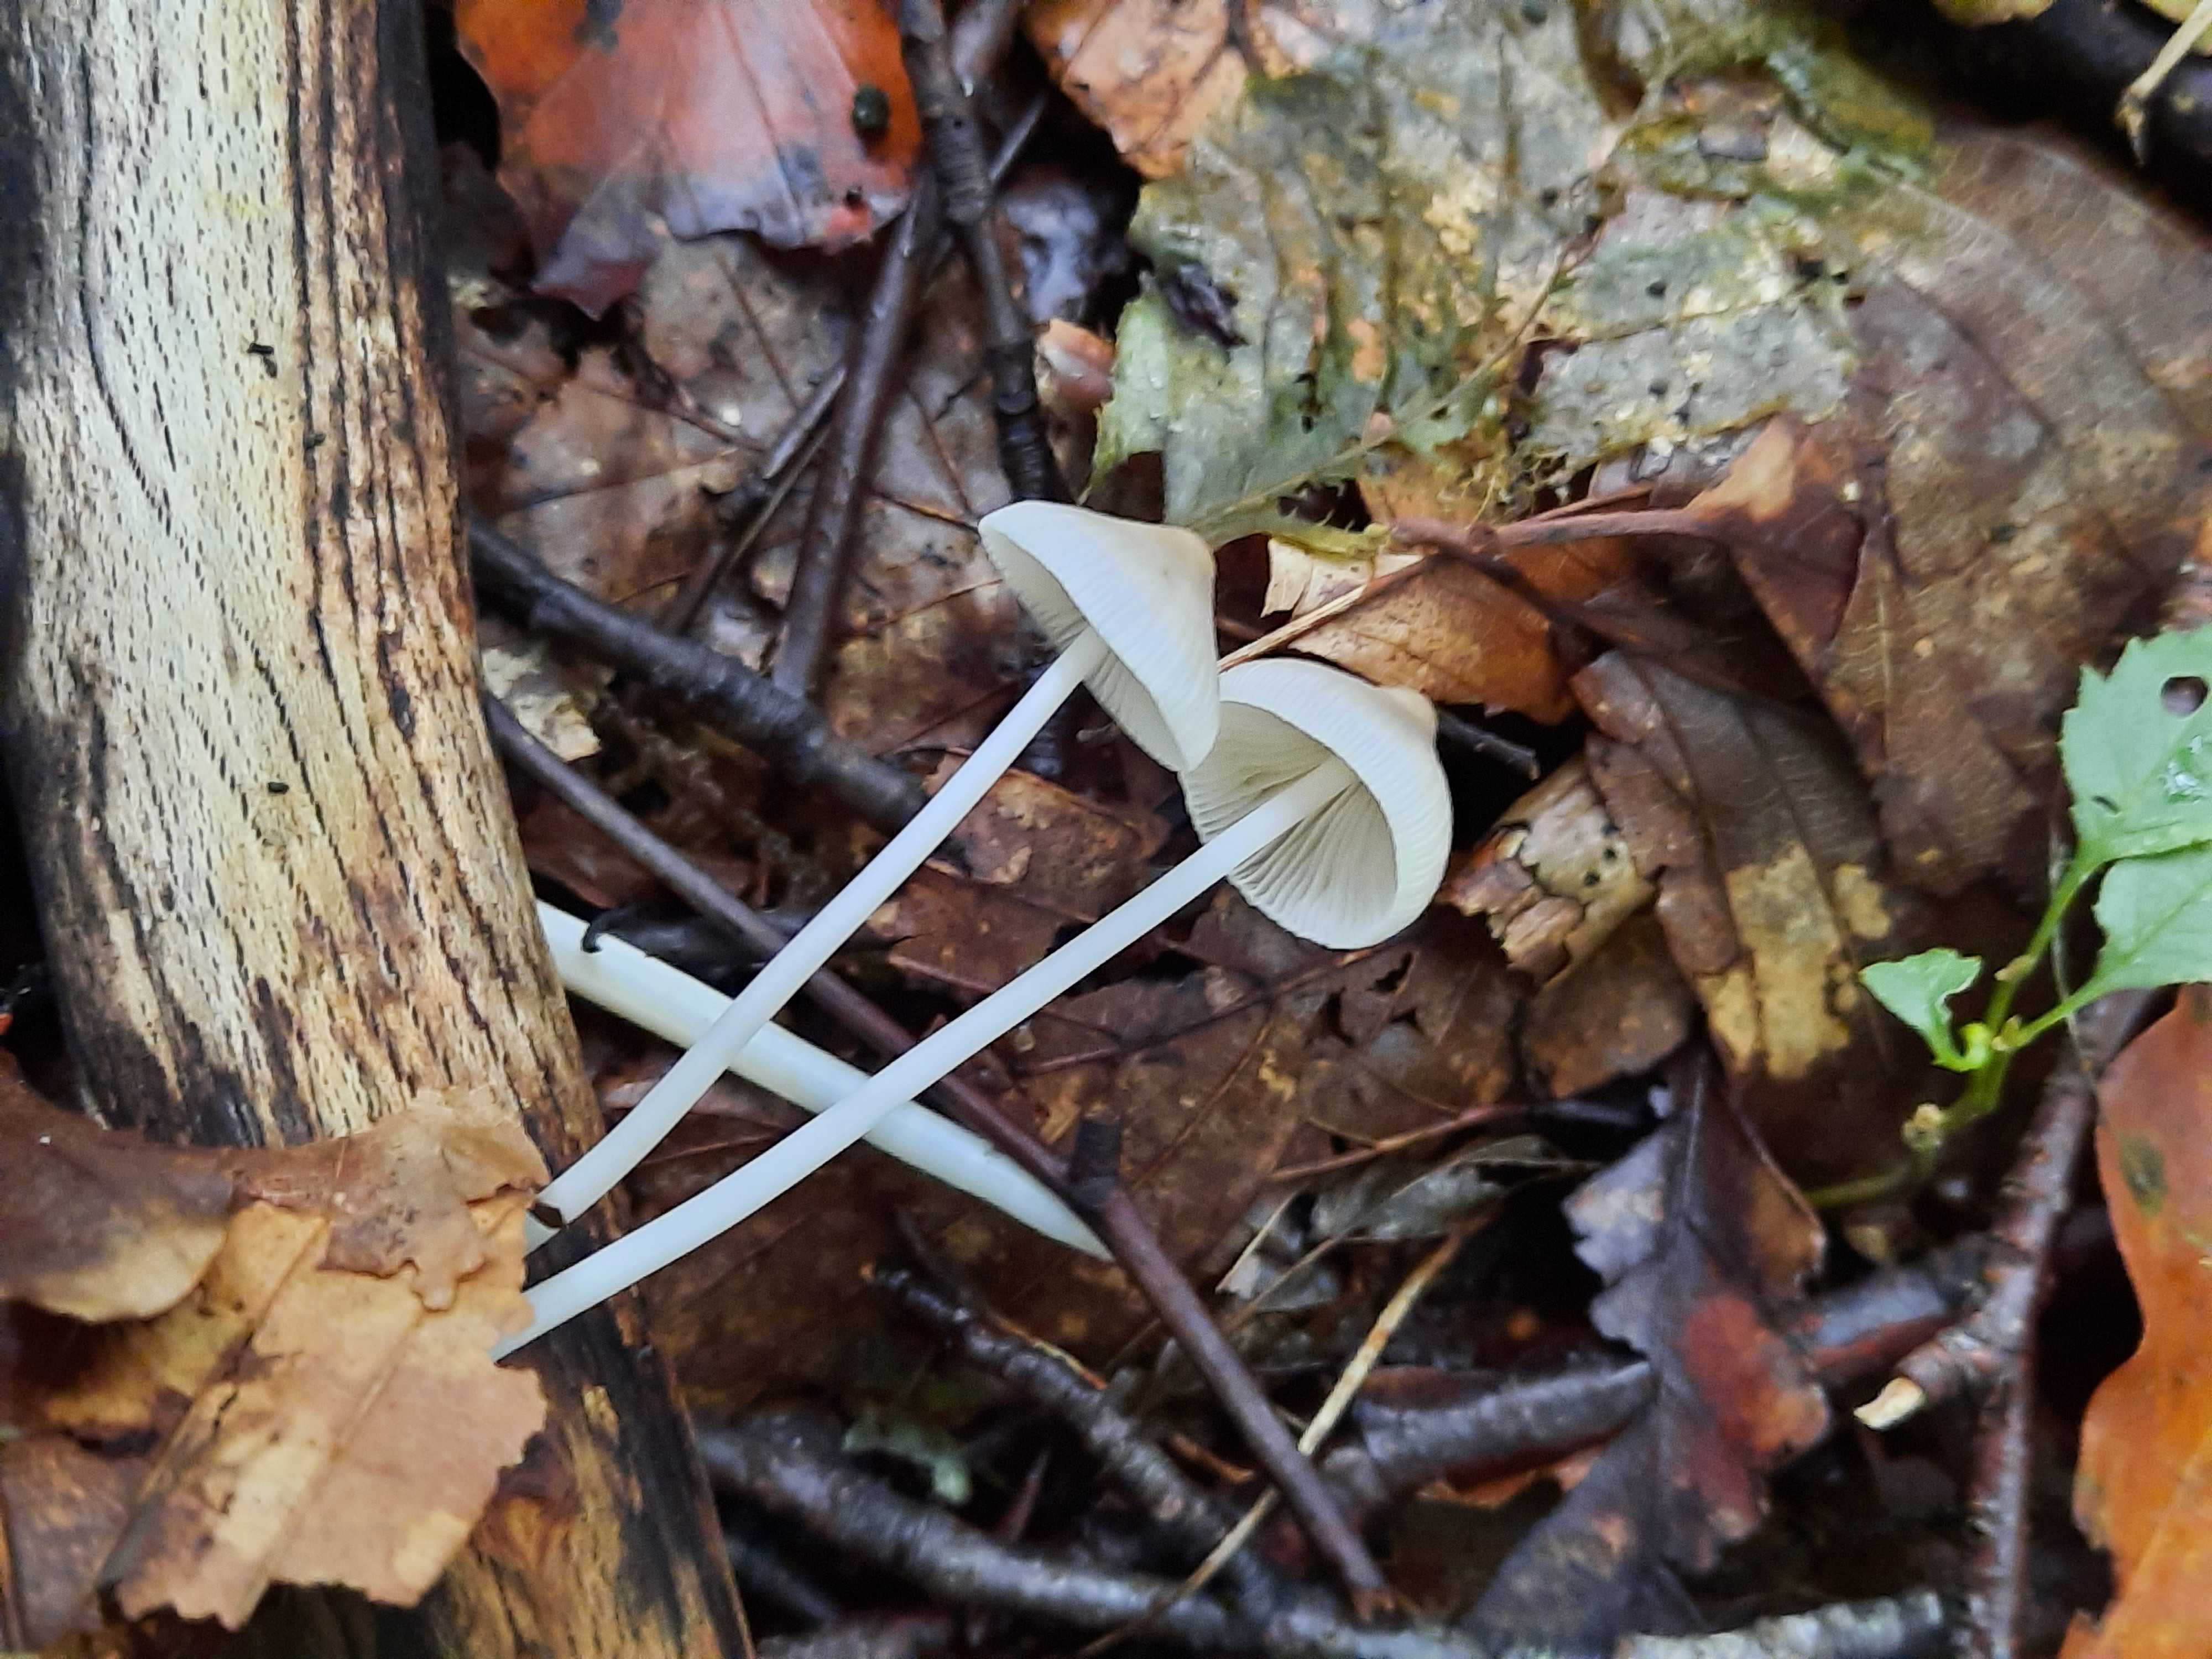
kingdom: Fungi
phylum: Basidiomycota
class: Agaricomycetes
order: Agaricales
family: Mycenaceae
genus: Mycena
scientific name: Mycena vitilis
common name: blankstokket huesvamp
